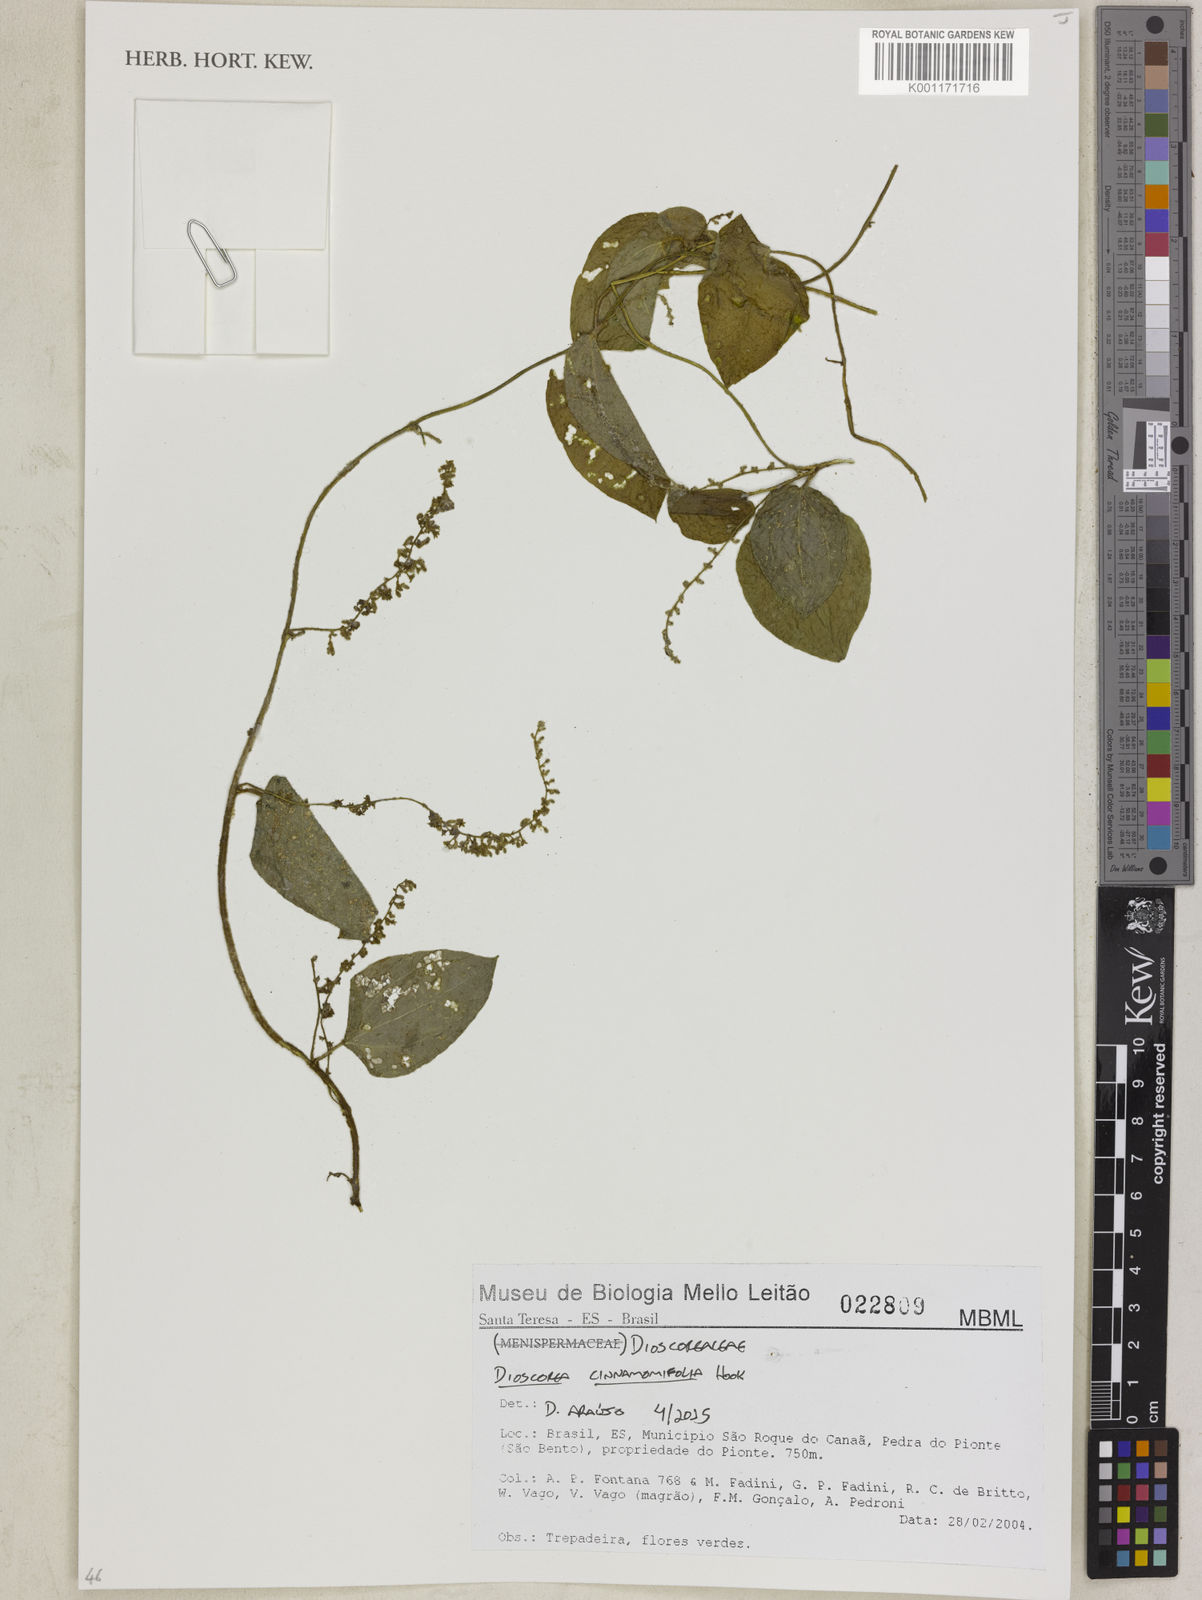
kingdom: Plantae
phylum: Tracheophyta
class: Liliopsida
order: Dioscoreales
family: Dioscoreaceae
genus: Dioscorea
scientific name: Dioscorea cinnamomifolia
